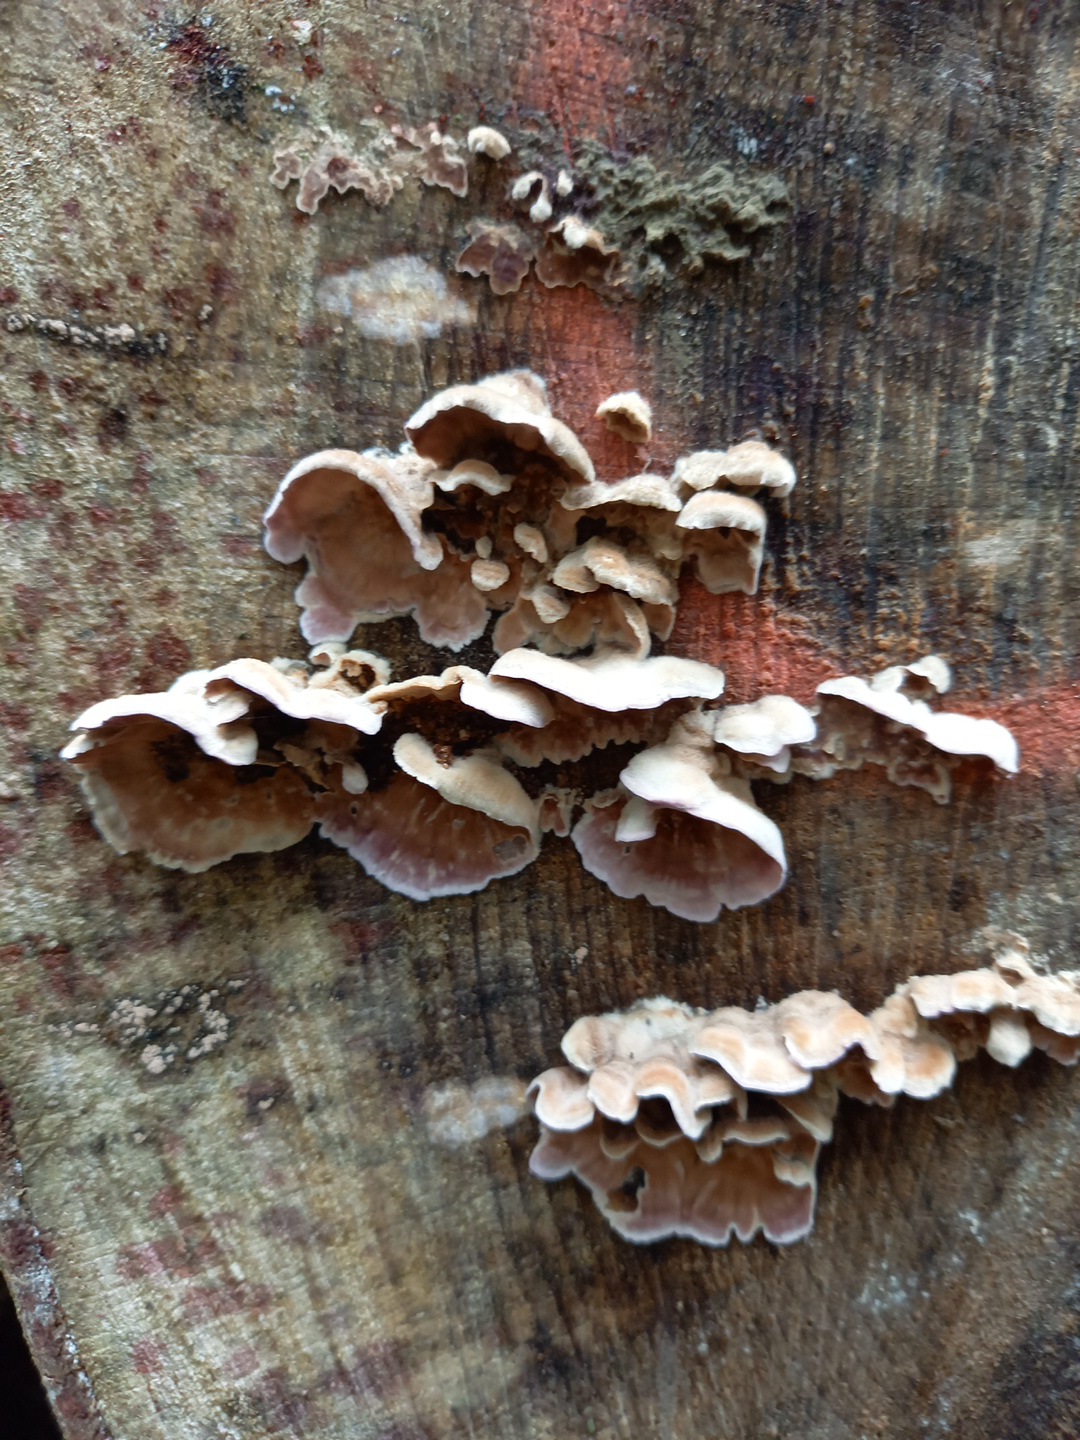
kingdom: Fungi
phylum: Basidiomycota
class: Agaricomycetes
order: Agaricales
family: Cyphellaceae
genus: Chondrostereum
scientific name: Chondrostereum purpureum
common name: purpurlædersvamp
